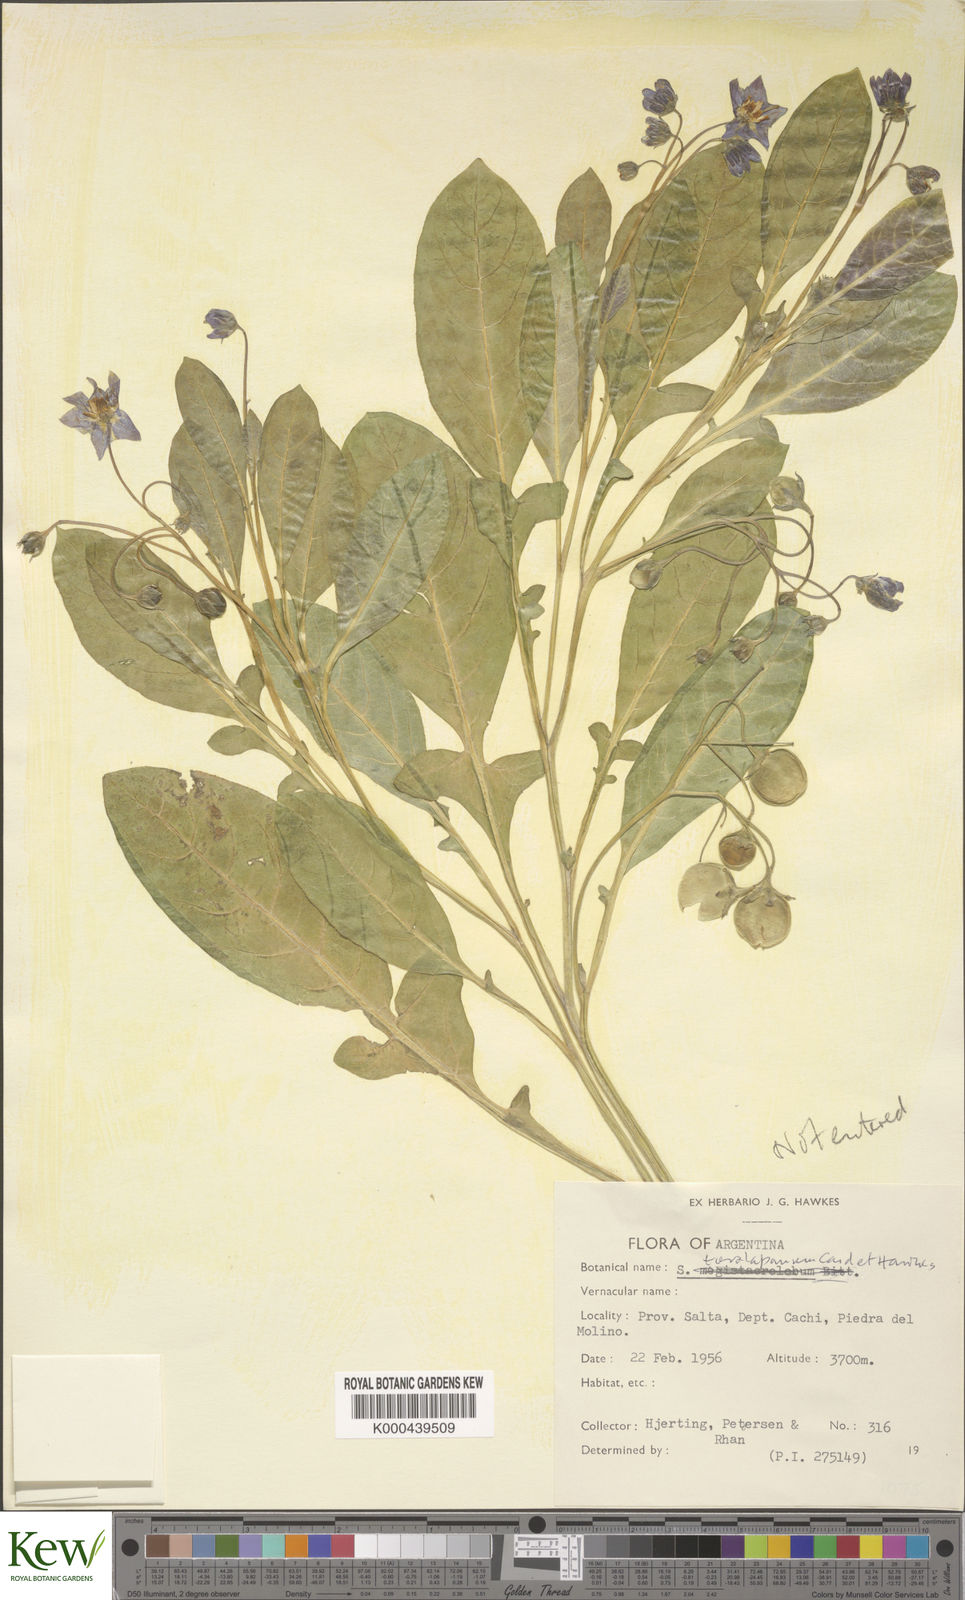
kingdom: Plantae
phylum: Tracheophyta
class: Magnoliopsida
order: Solanales
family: Solanaceae
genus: Solanum
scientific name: Solanum
